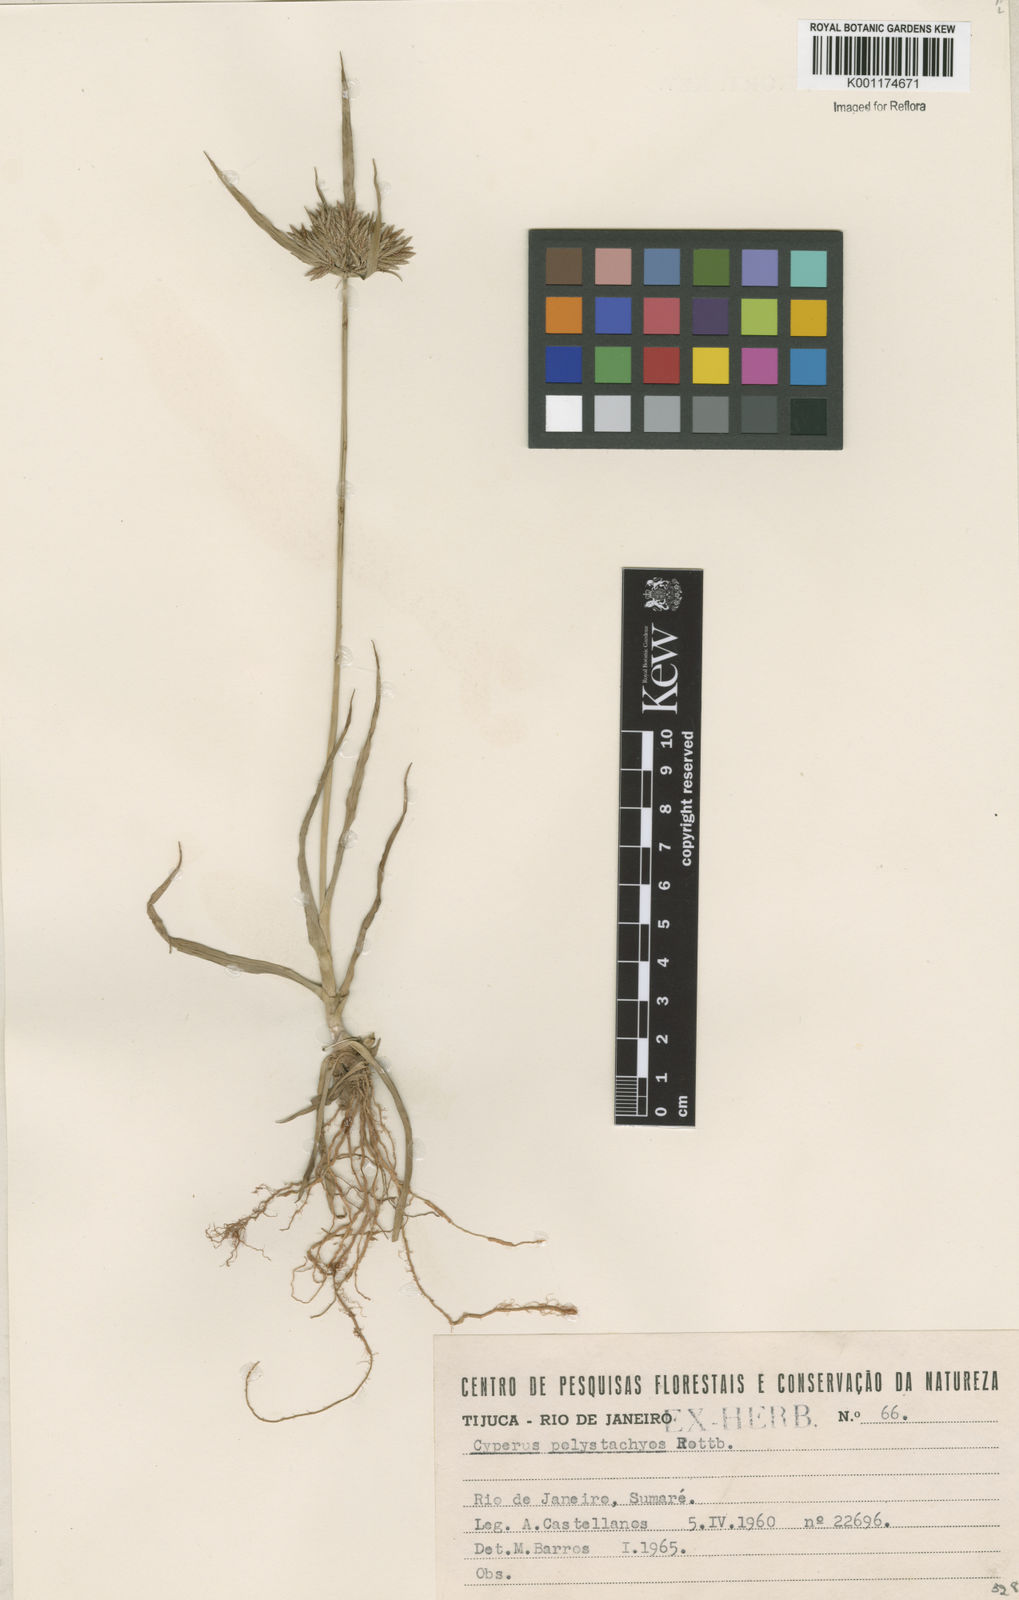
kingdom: Plantae
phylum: Tracheophyta
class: Liliopsida
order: Poales
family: Cyperaceae
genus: Cyperus
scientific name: Cyperus polystachyos
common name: Bunchy flat sedge
